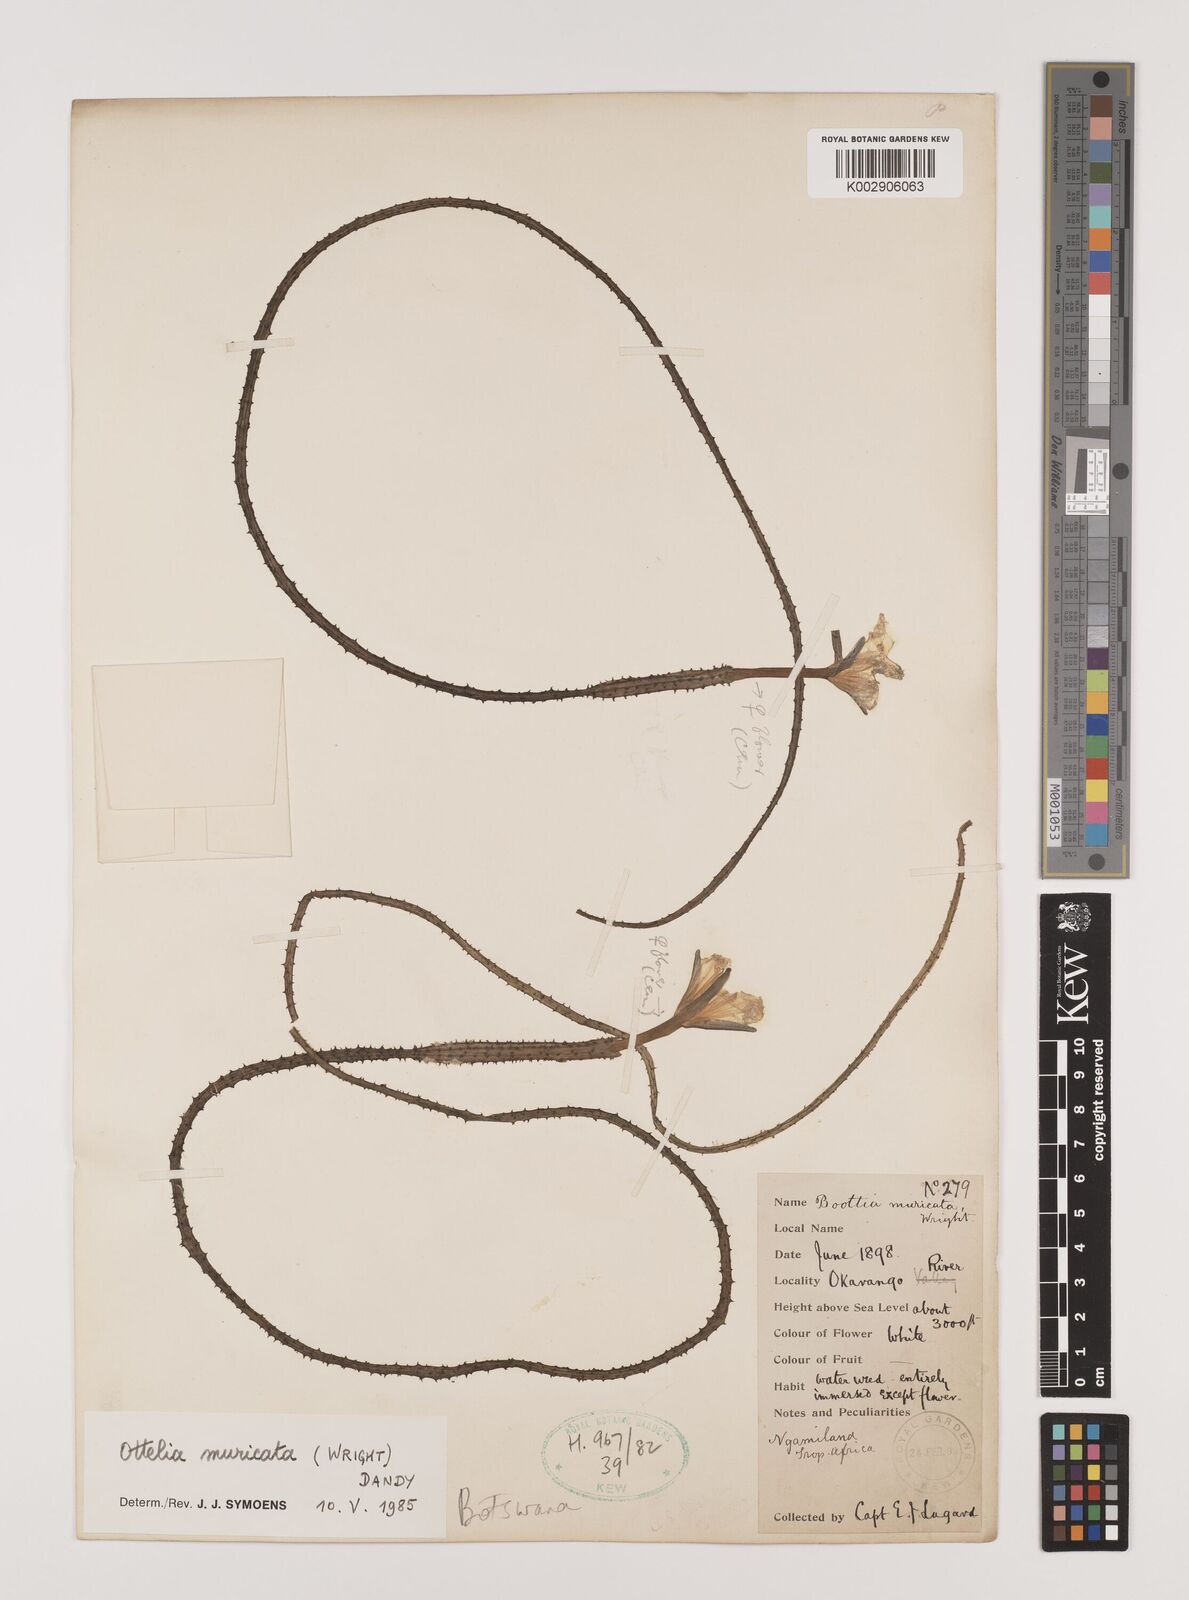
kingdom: Plantae
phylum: Tracheophyta
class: Liliopsida
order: Alismatales
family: Hydrocharitaceae
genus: Ottelia
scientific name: Ottelia muricata
